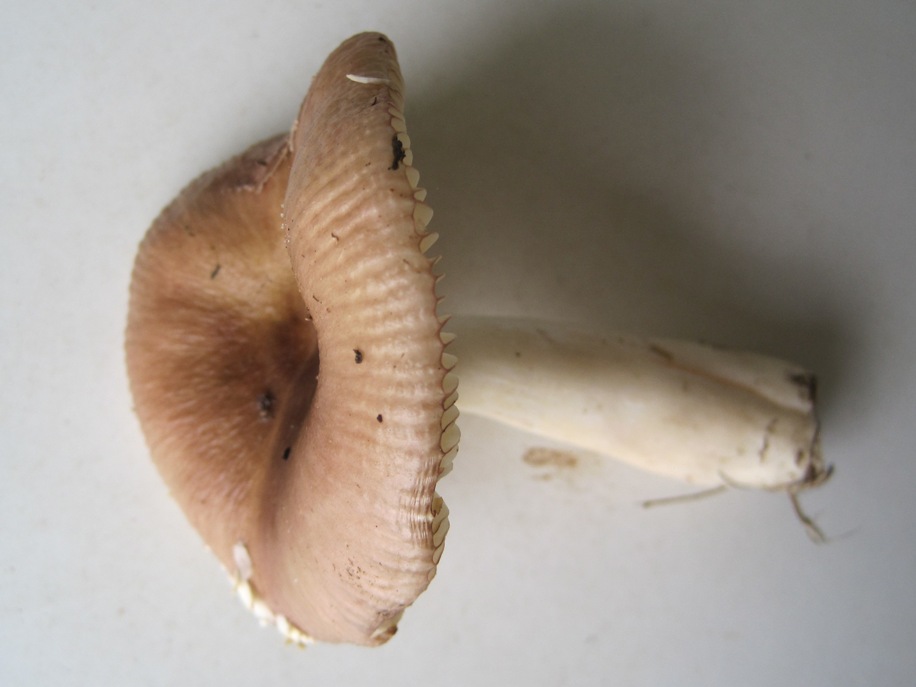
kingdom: Fungi
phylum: Basidiomycota
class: Agaricomycetes
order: Russulales
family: Russulaceae
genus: Russula
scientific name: Russula nitida
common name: året skørhat
